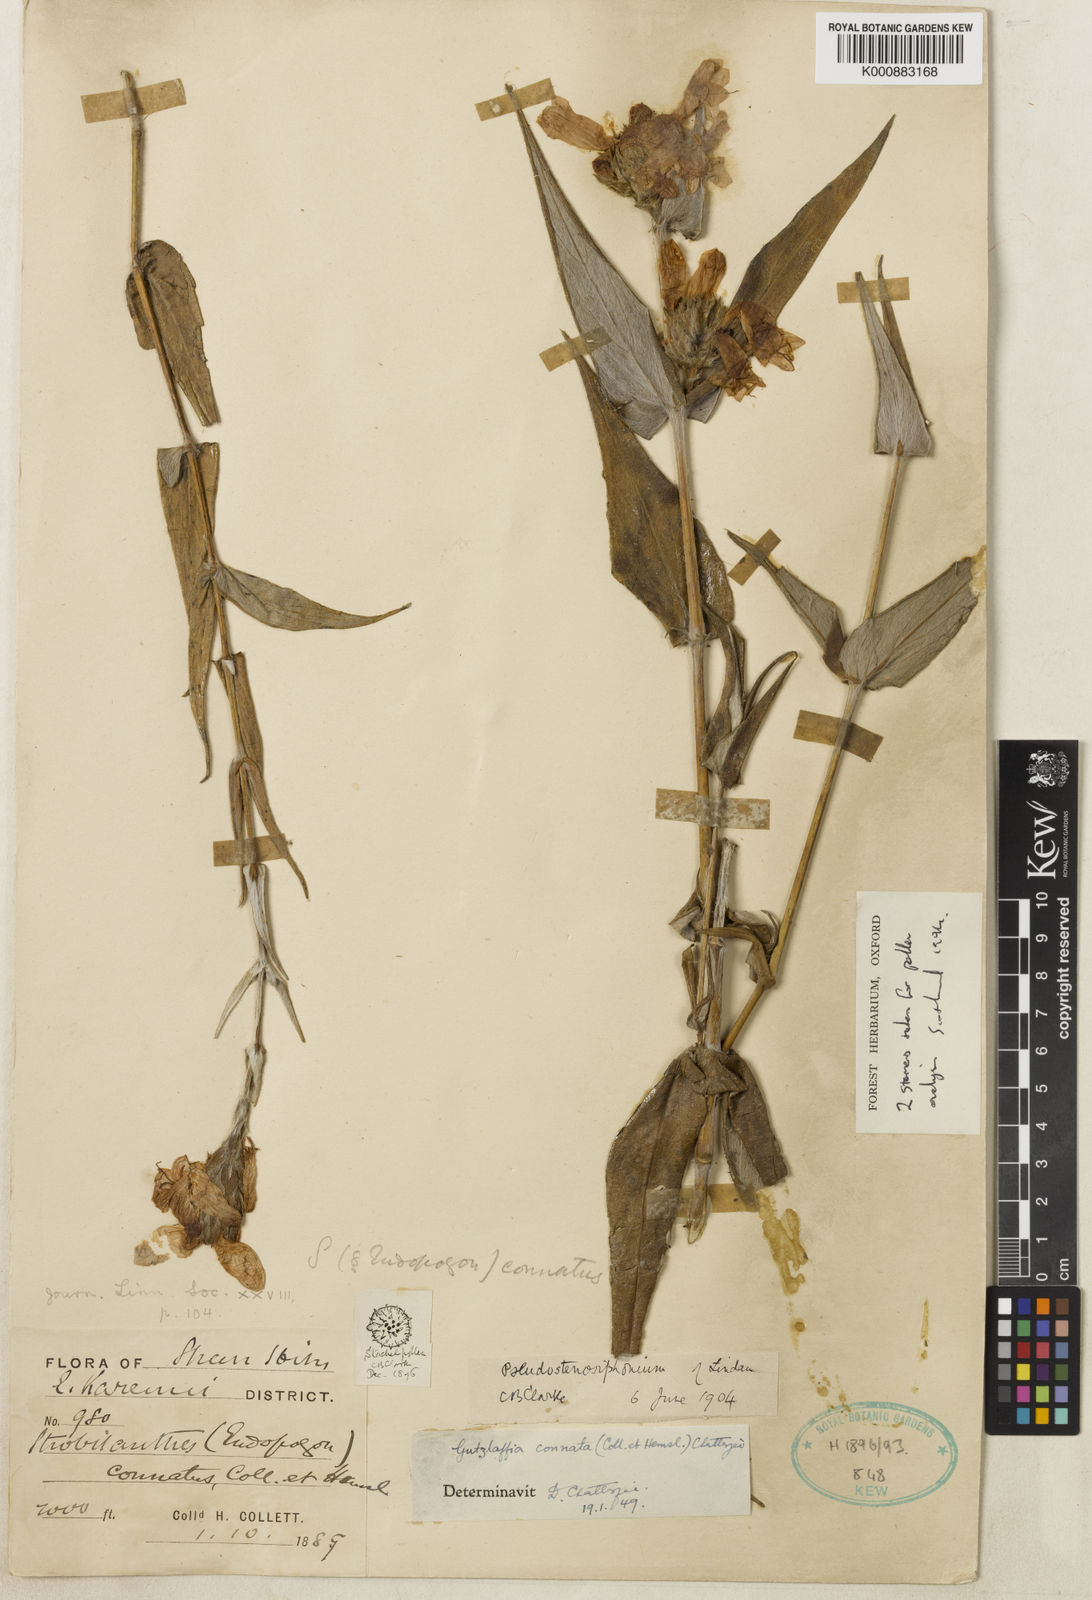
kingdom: Plantae
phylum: Tracheophyta
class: Magnoliopsida
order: Lamiales
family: Acanthaceae
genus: Strobilanthes
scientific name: Strobilanthes
